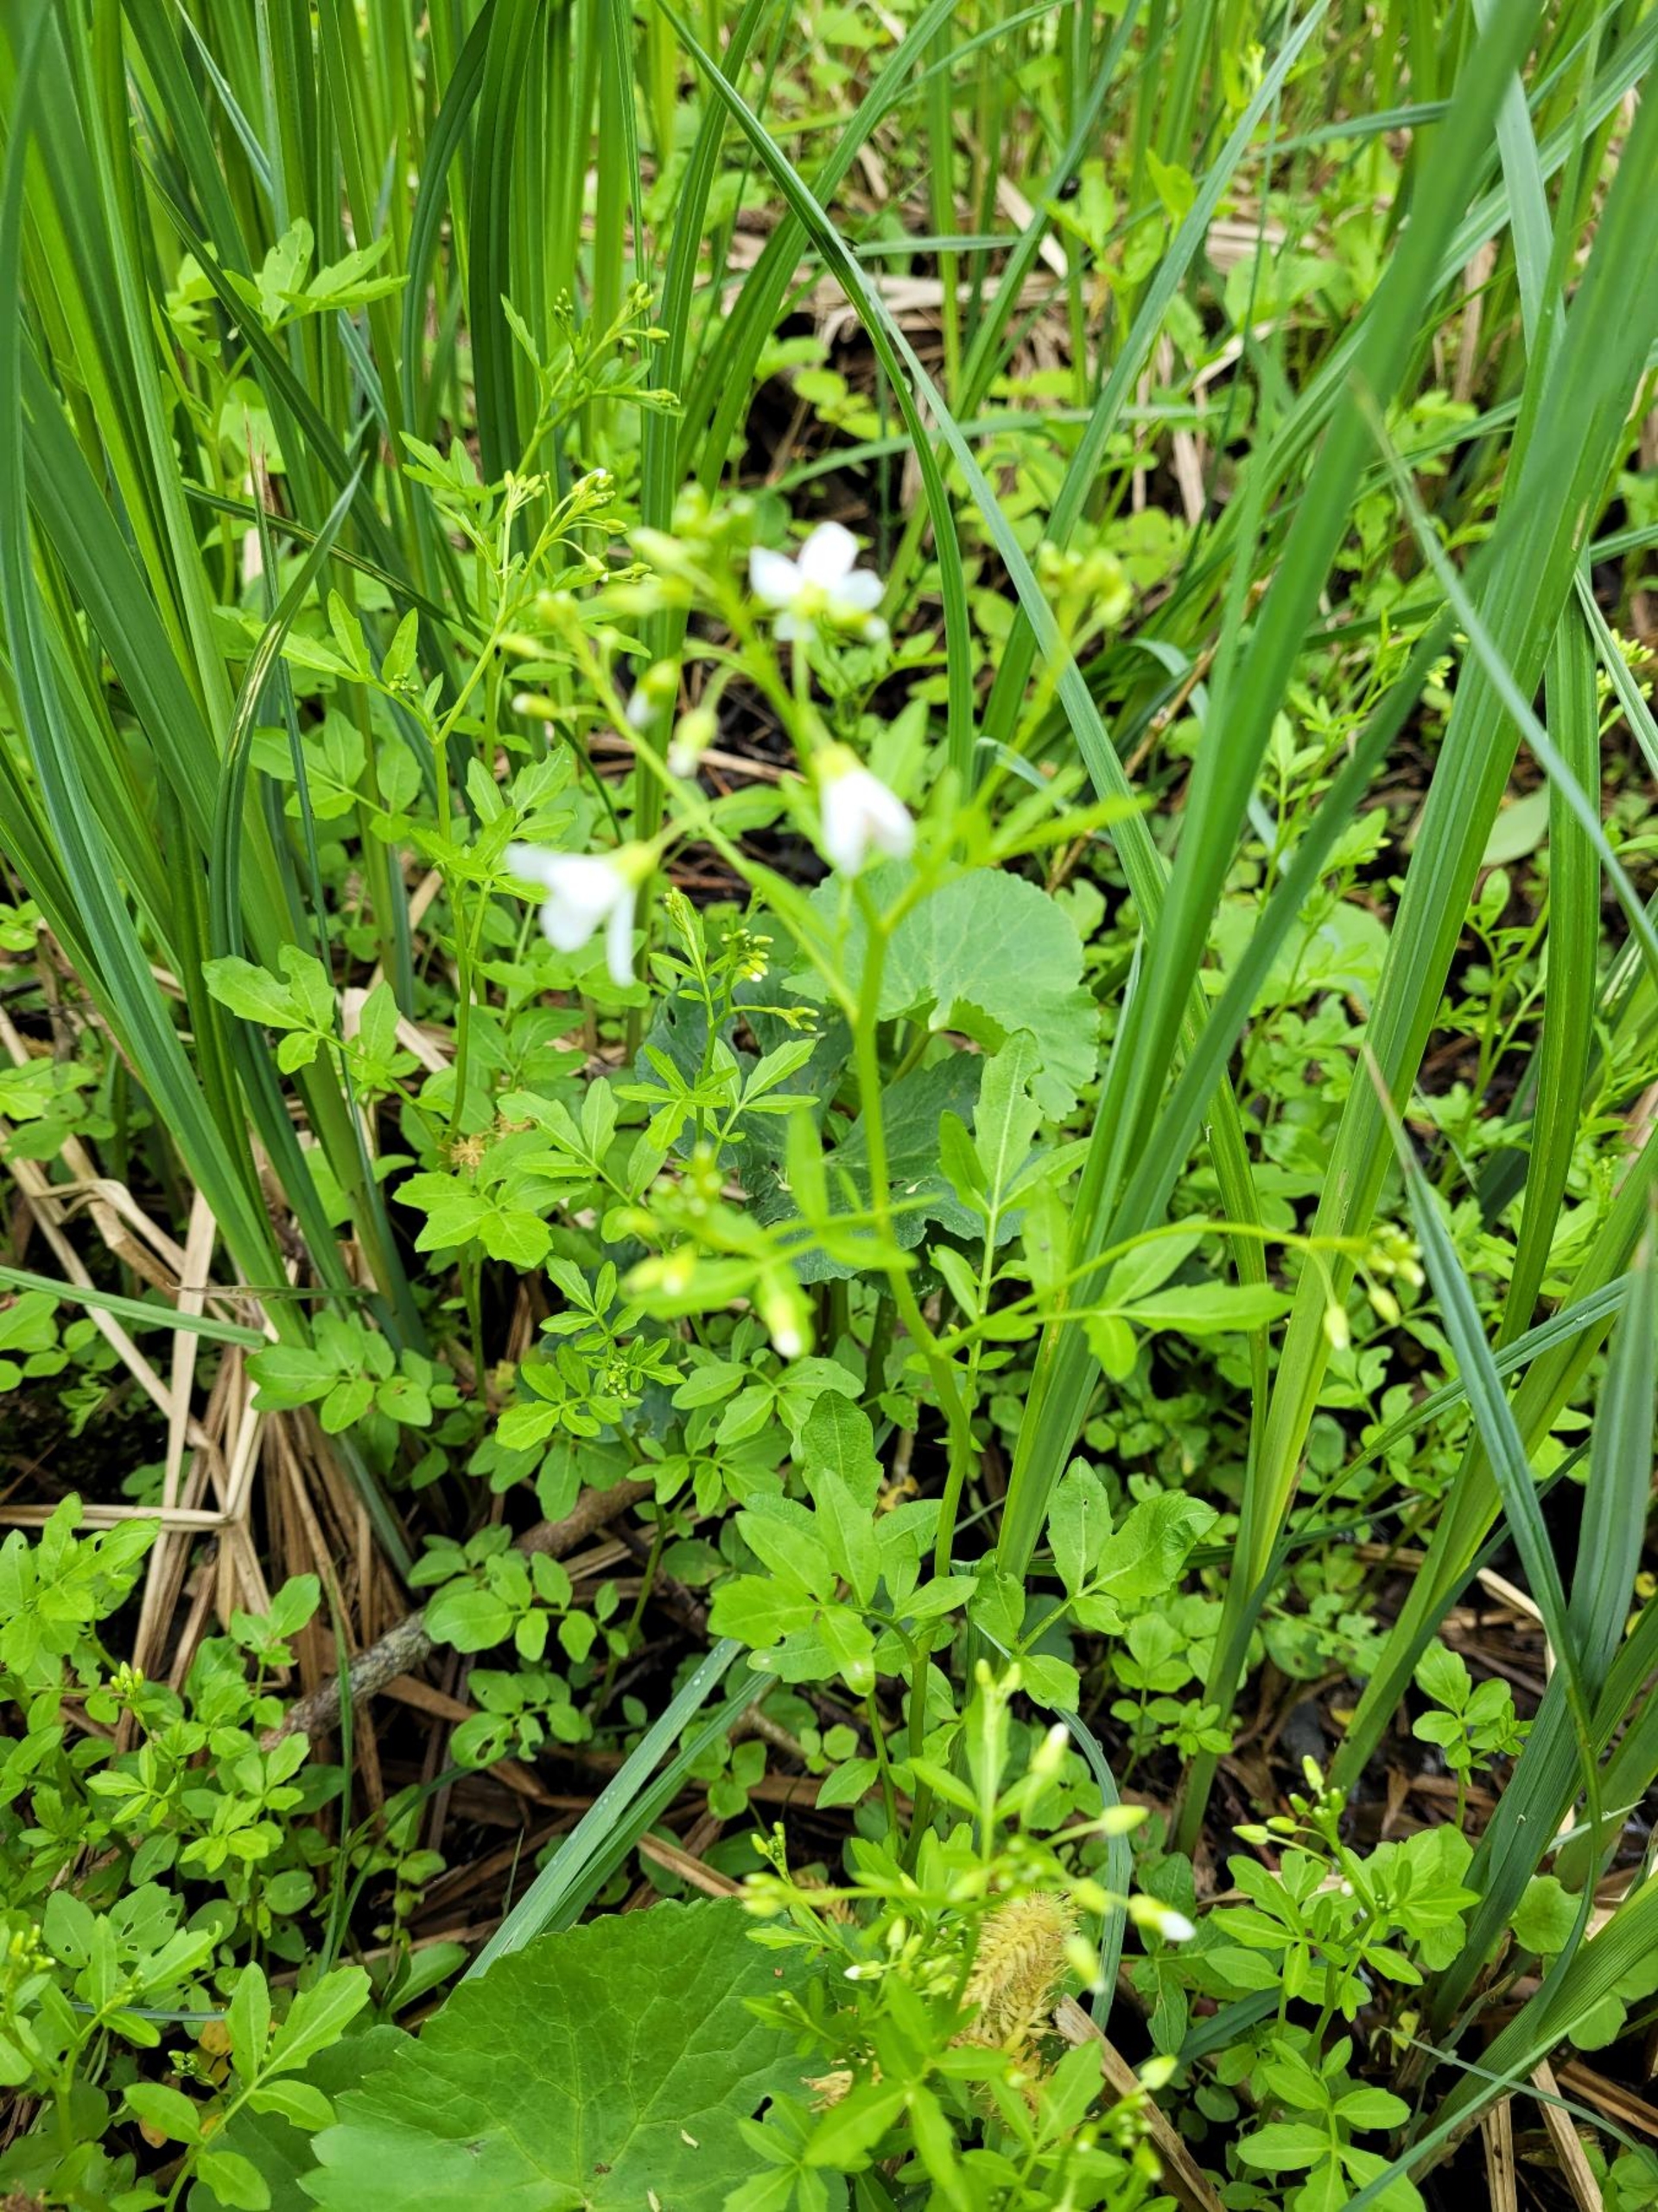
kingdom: Plantae
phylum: Tracheophyta
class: Magnoliopsida
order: Brassicales
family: Brassicaceae
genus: Cardamine
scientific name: Cardamine amara
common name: Vandkarse
